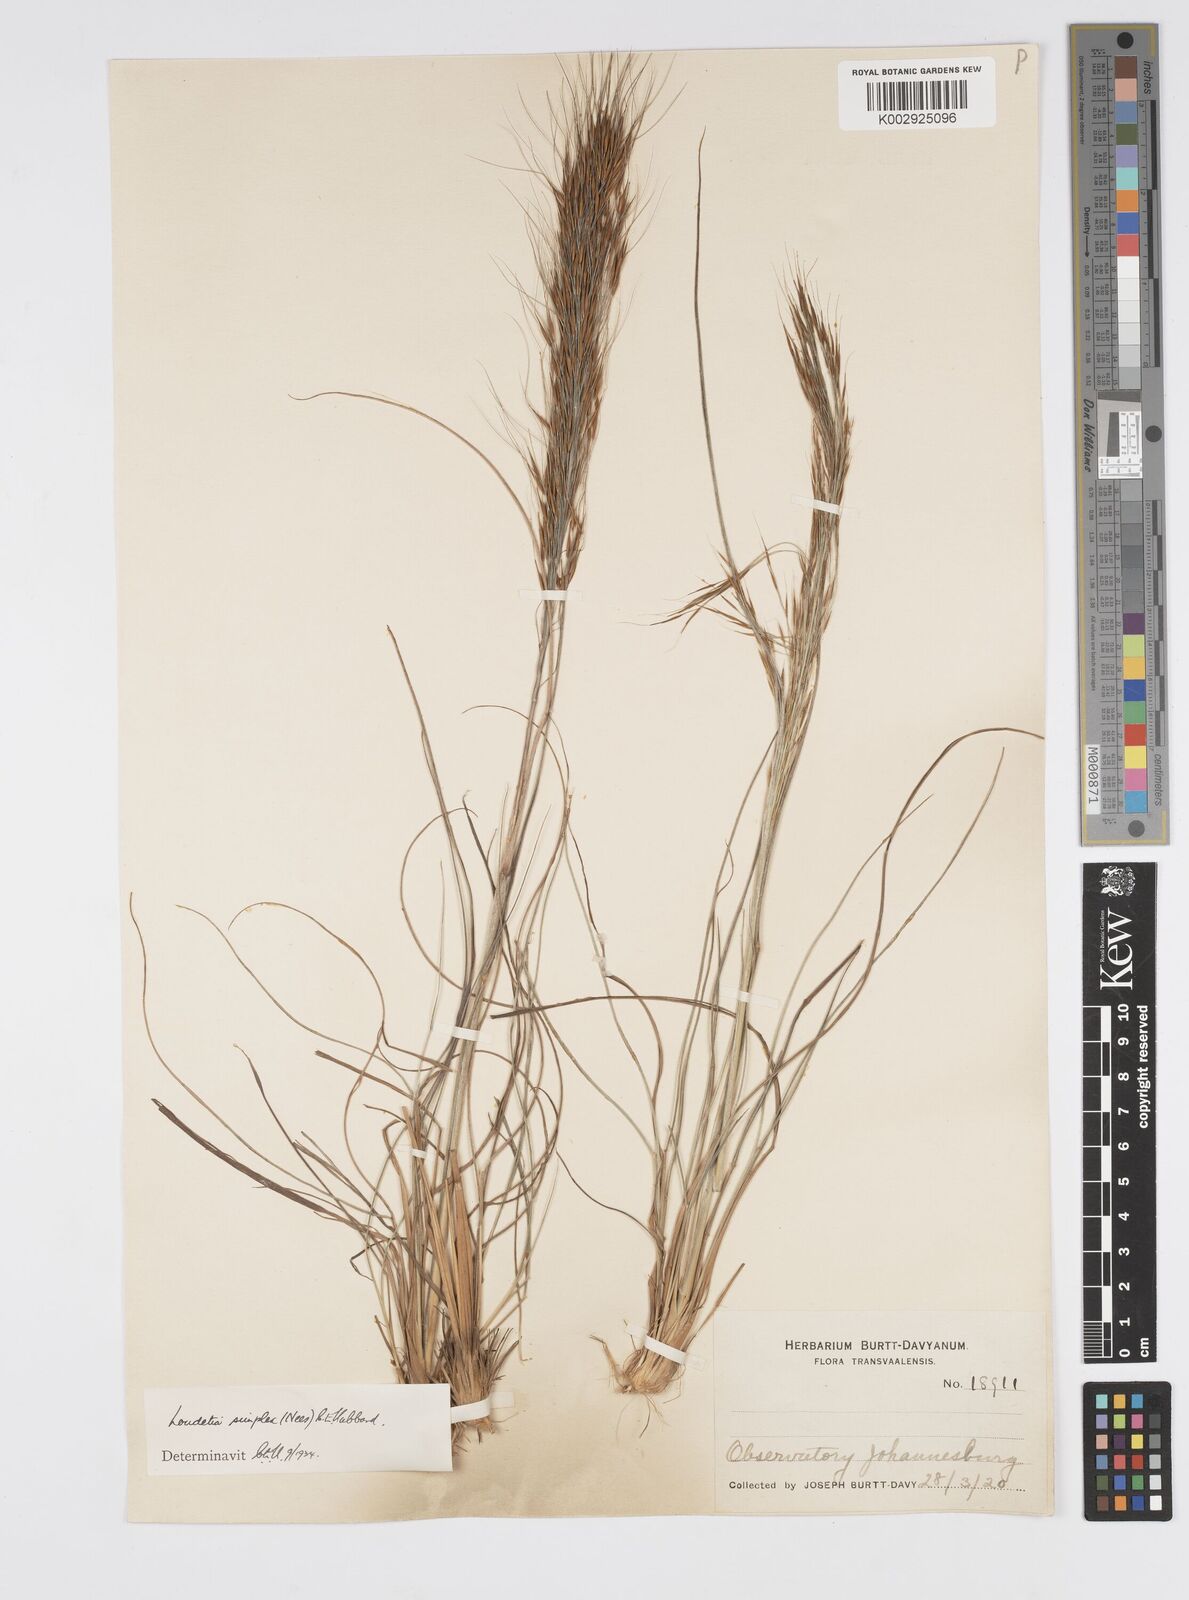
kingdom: Plantae
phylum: Tracheophyta
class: Liliopsida
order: Poales
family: Poaceae
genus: Loudetia
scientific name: Loudetia simplex
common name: Common russet grass
